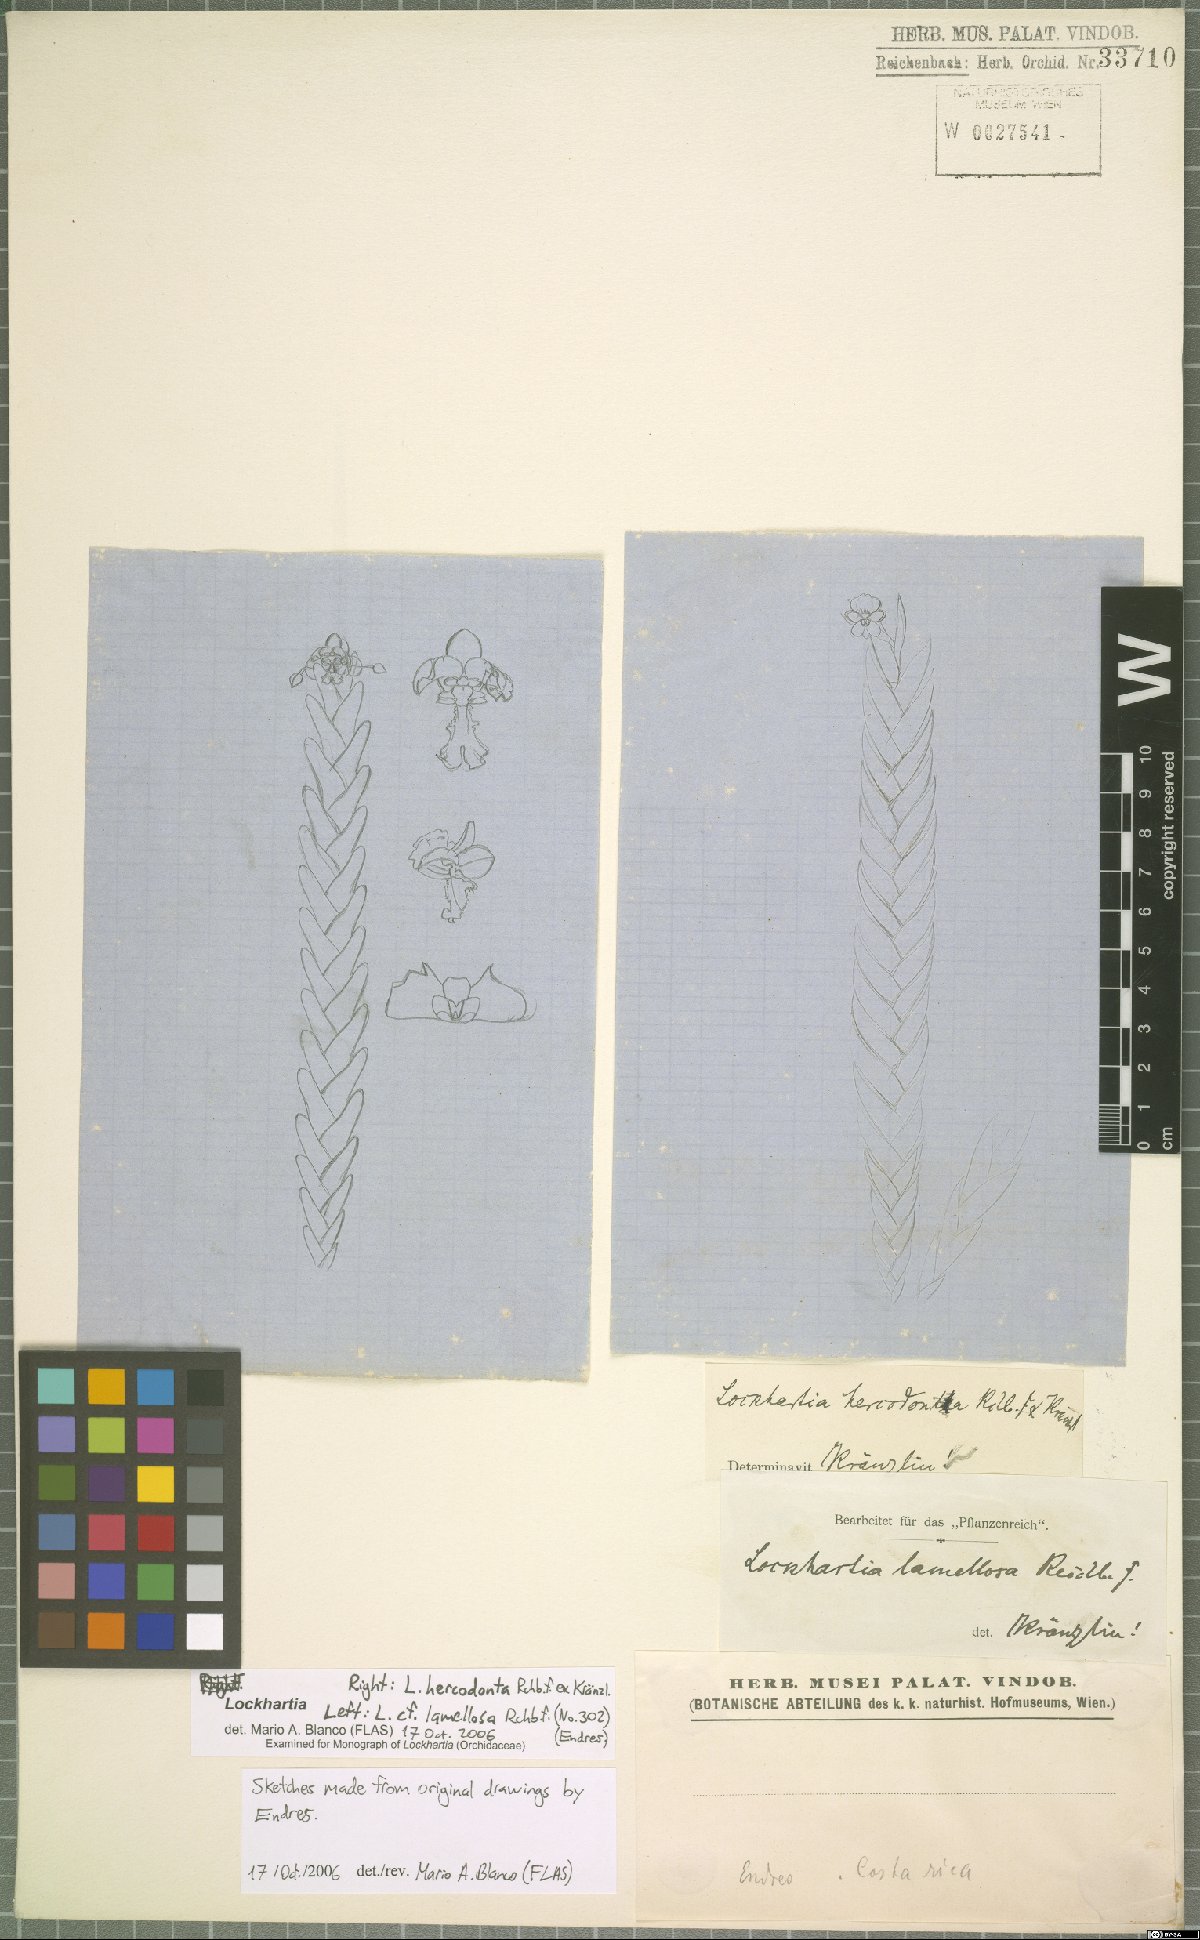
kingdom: Plantae
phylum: Tracheophyta
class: Liliopsida
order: Asparagales
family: Orchidaceae
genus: Lockhartia
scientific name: Lockhartia hercodonta
